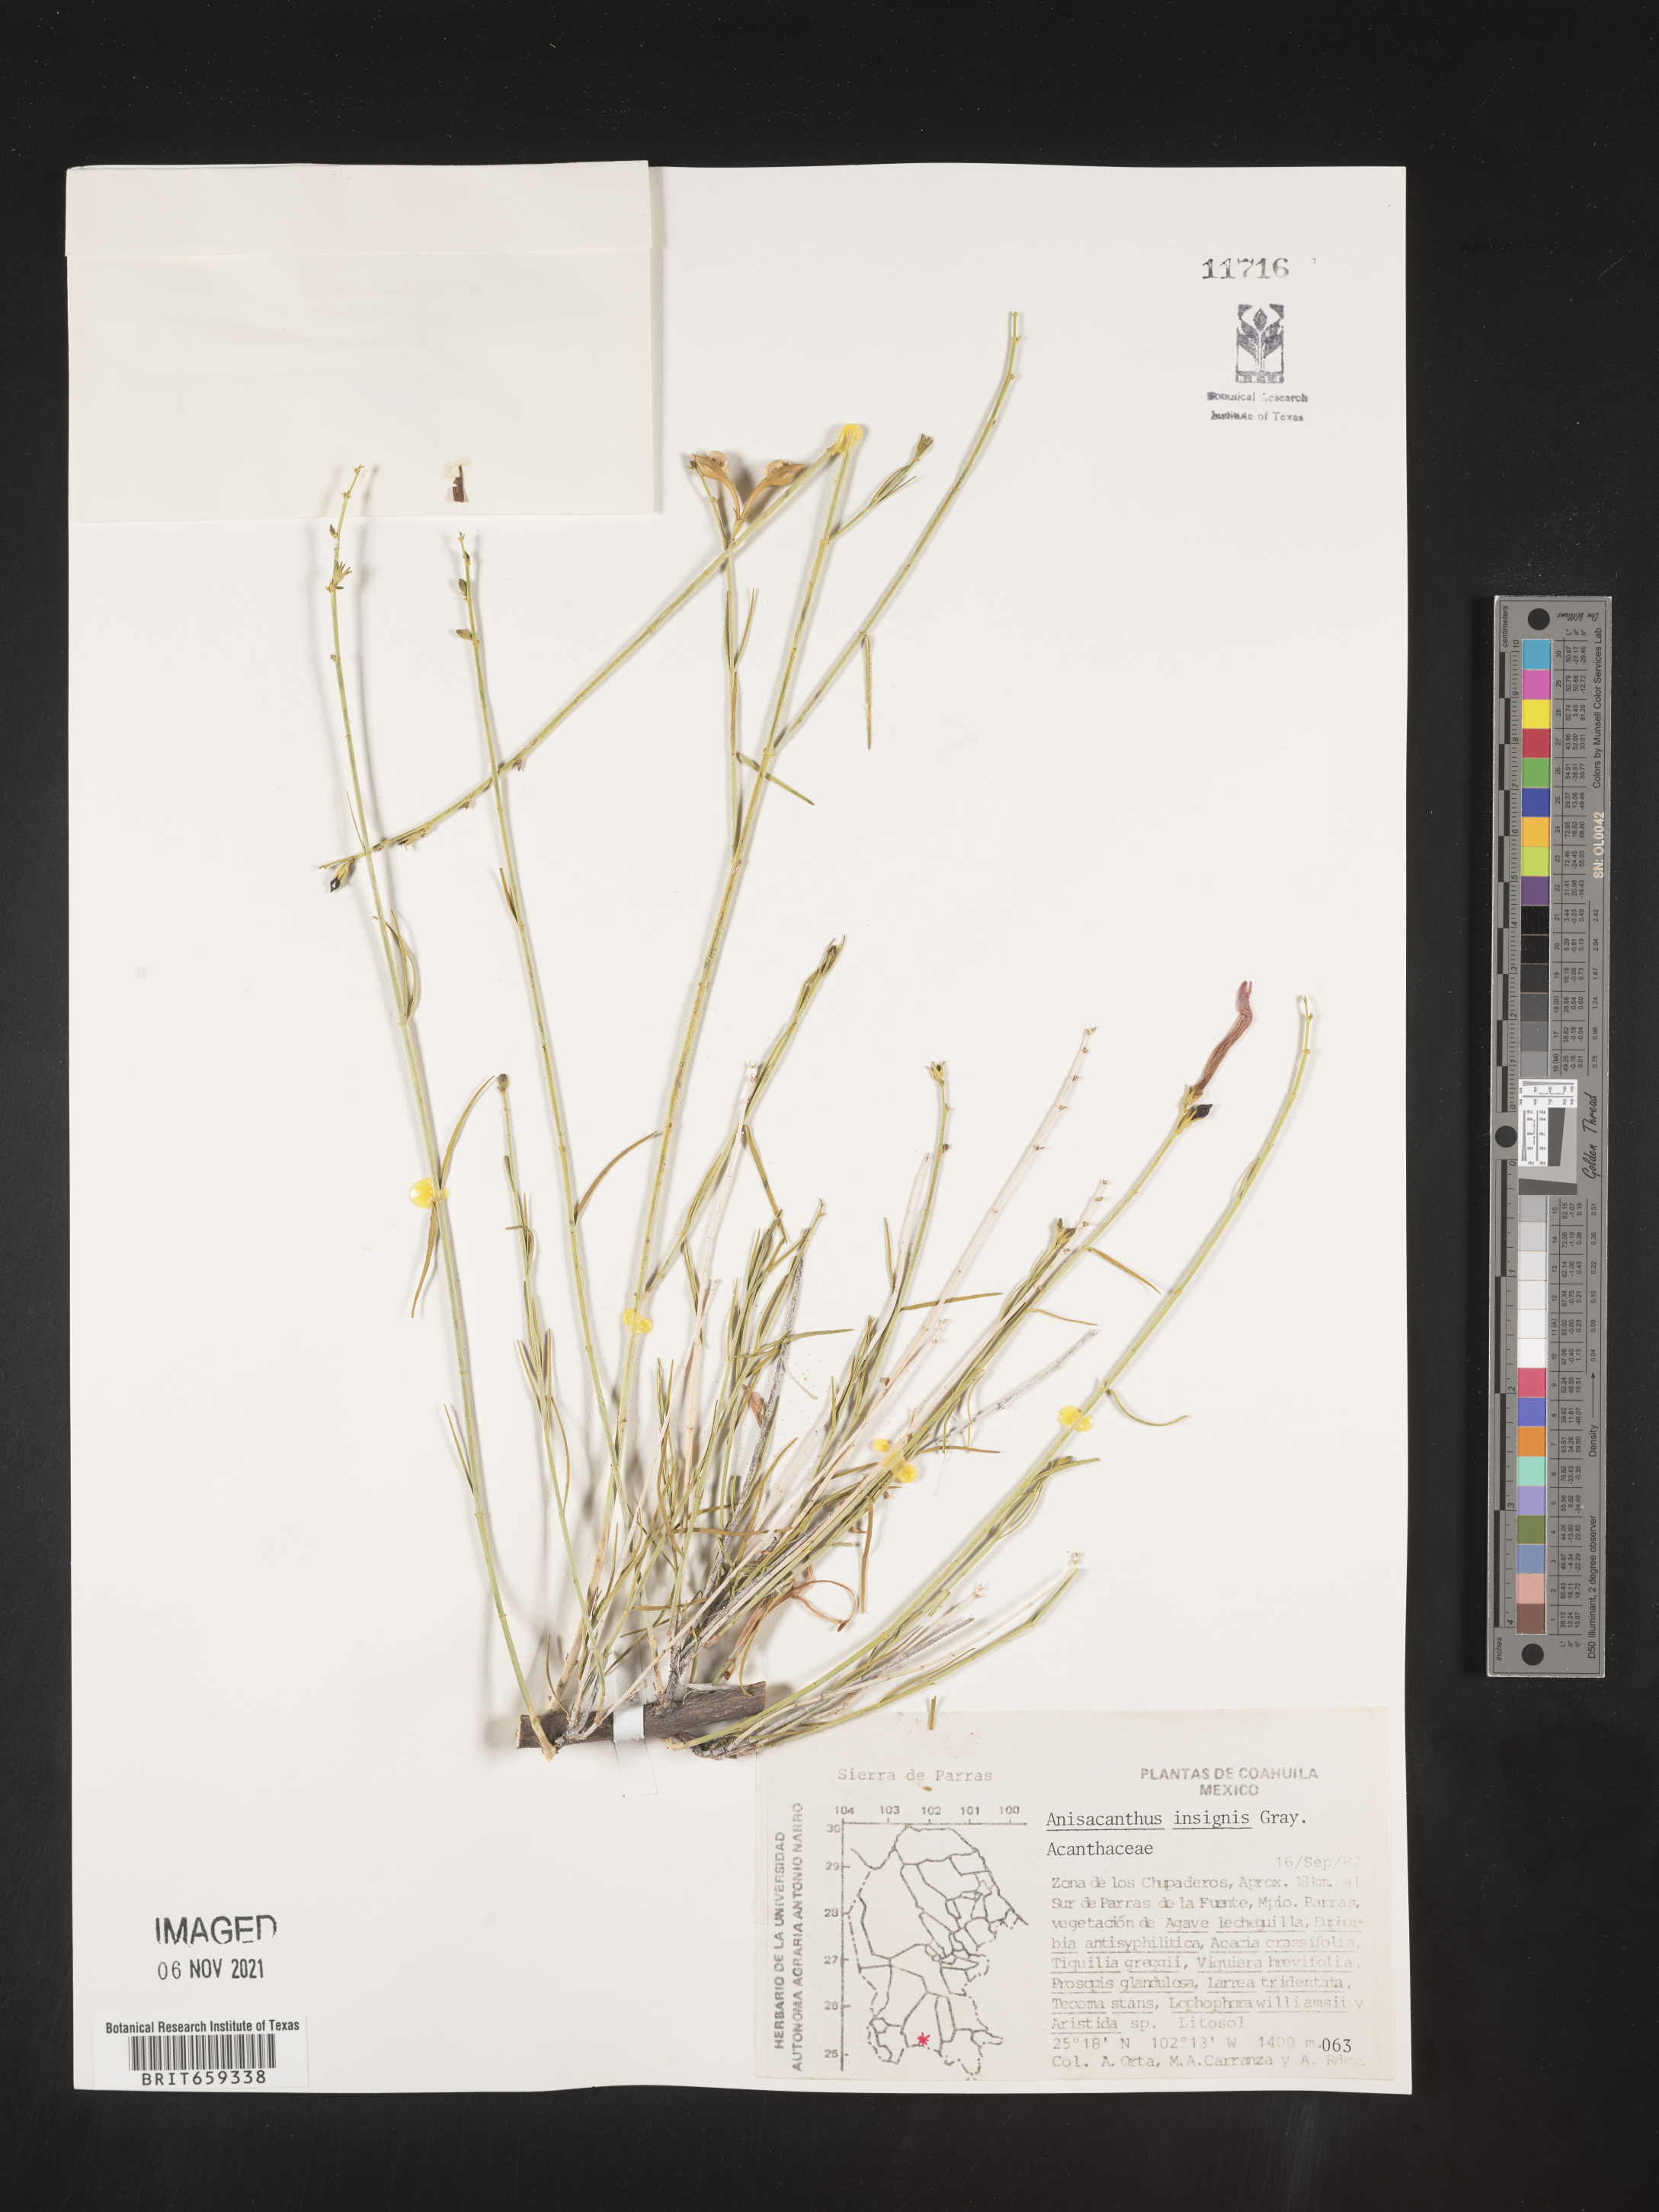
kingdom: Plantae
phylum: Tracheophyta
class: Magnoliopsida
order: Lamiales
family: Acanthaceae
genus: Anisacanthus
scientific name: Anisacanthus
